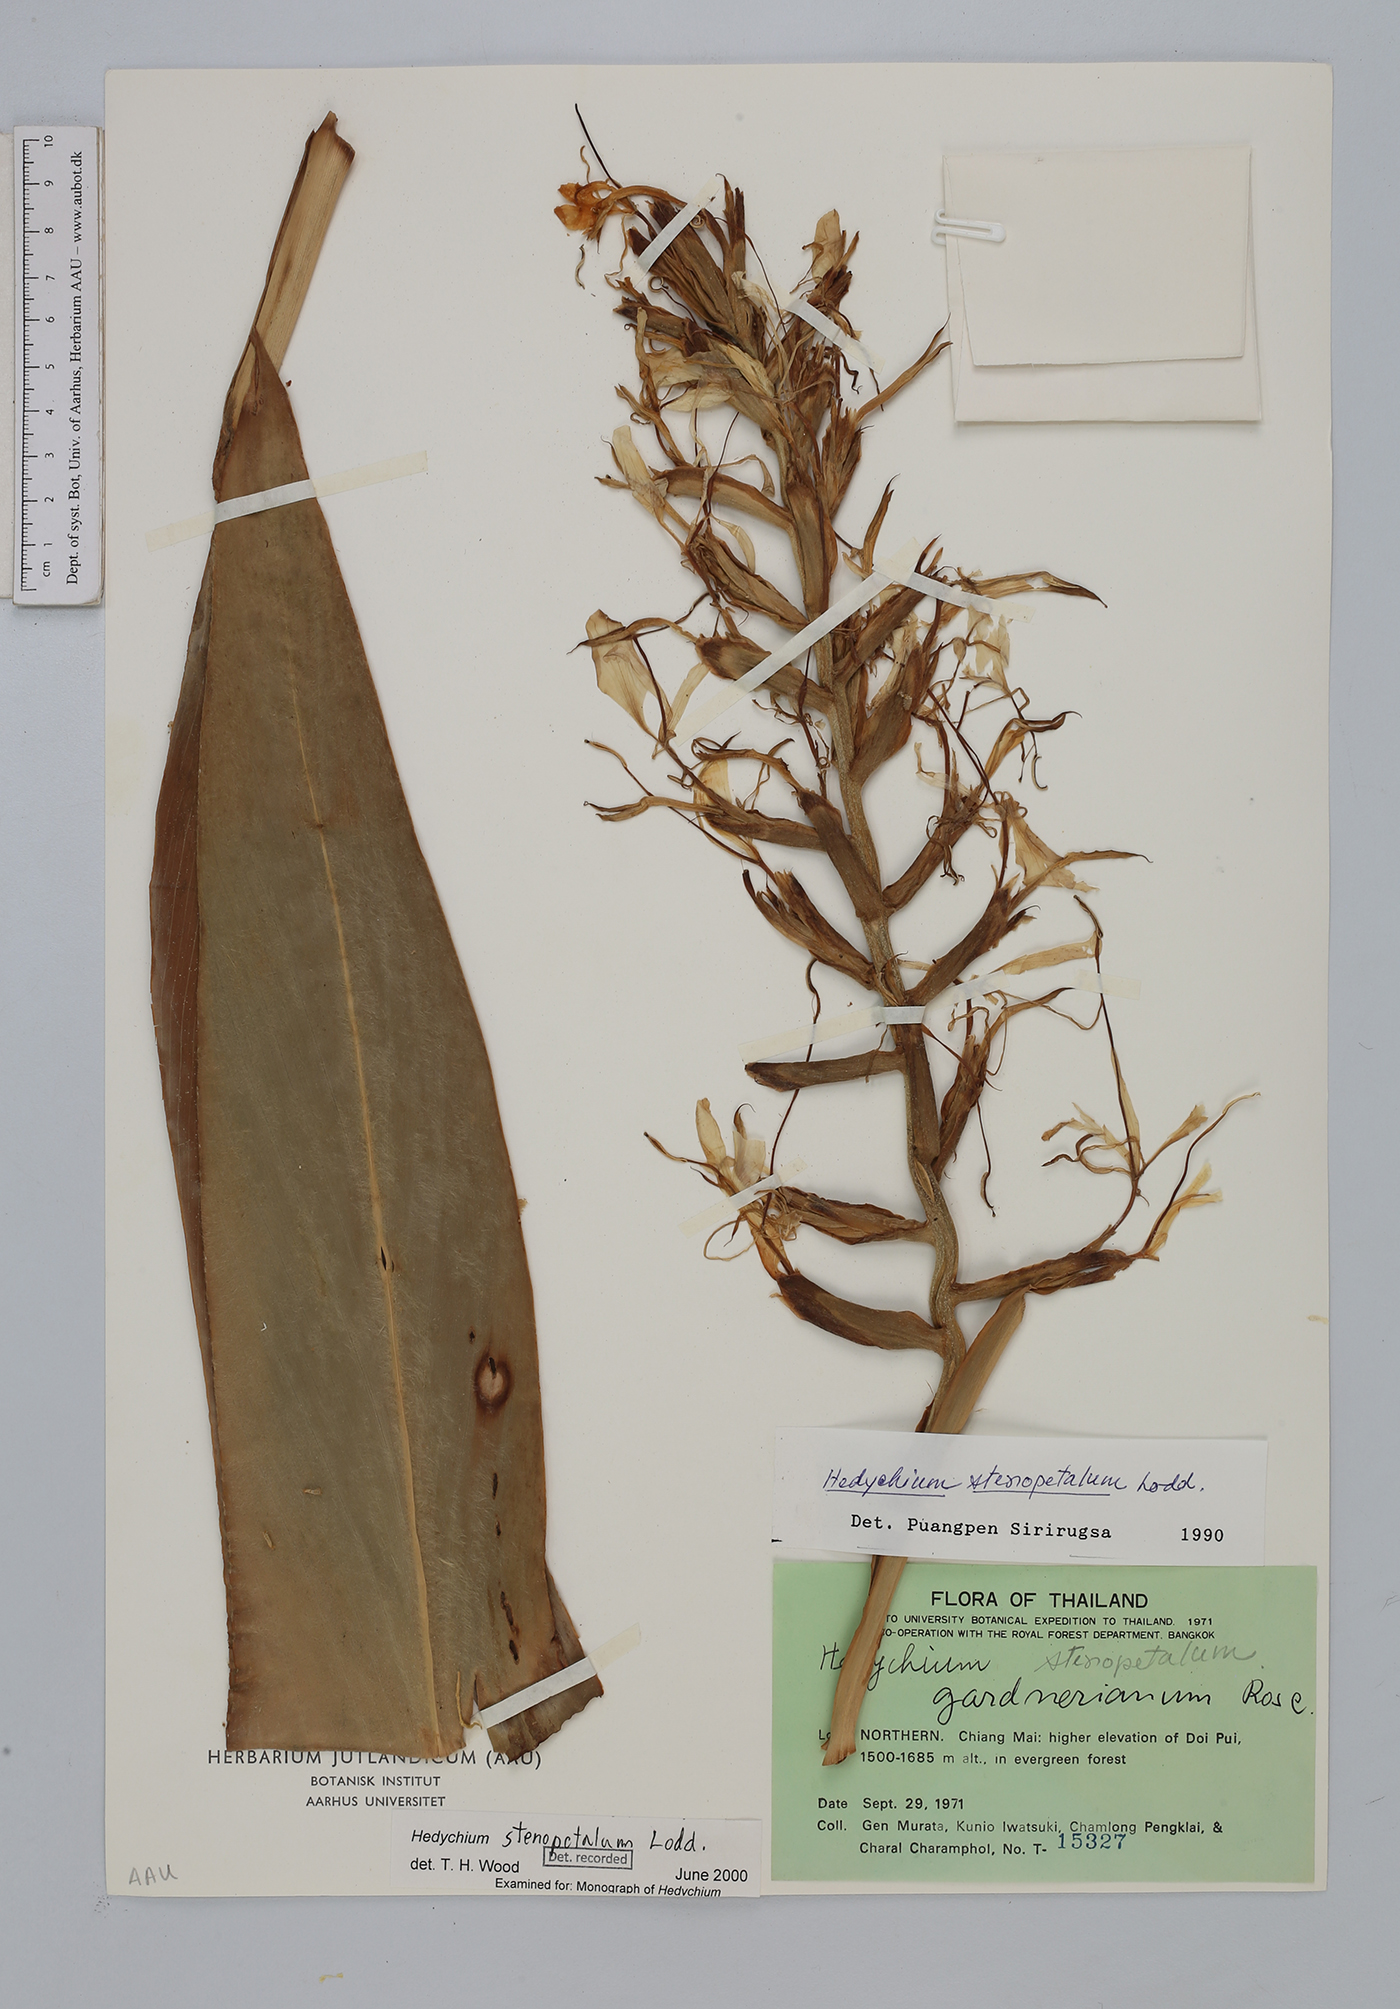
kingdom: Plantae
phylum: Tracheophyta
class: Liliopsida
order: Zingiberales
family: Zingiberaceae
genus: Hedychium
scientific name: Hedychium stenopetalum
